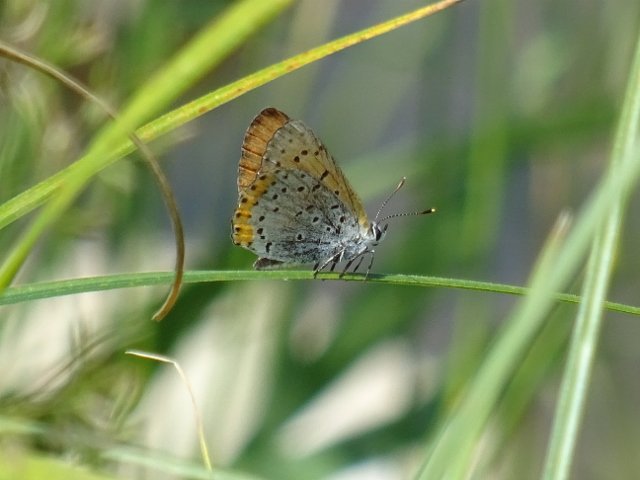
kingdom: Animalia
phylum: Arthropoda
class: Insecta
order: Lepidoptera
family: Sesiidae
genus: Sesia
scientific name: Sesia Lycaena hyllus
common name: Bronze Copper
